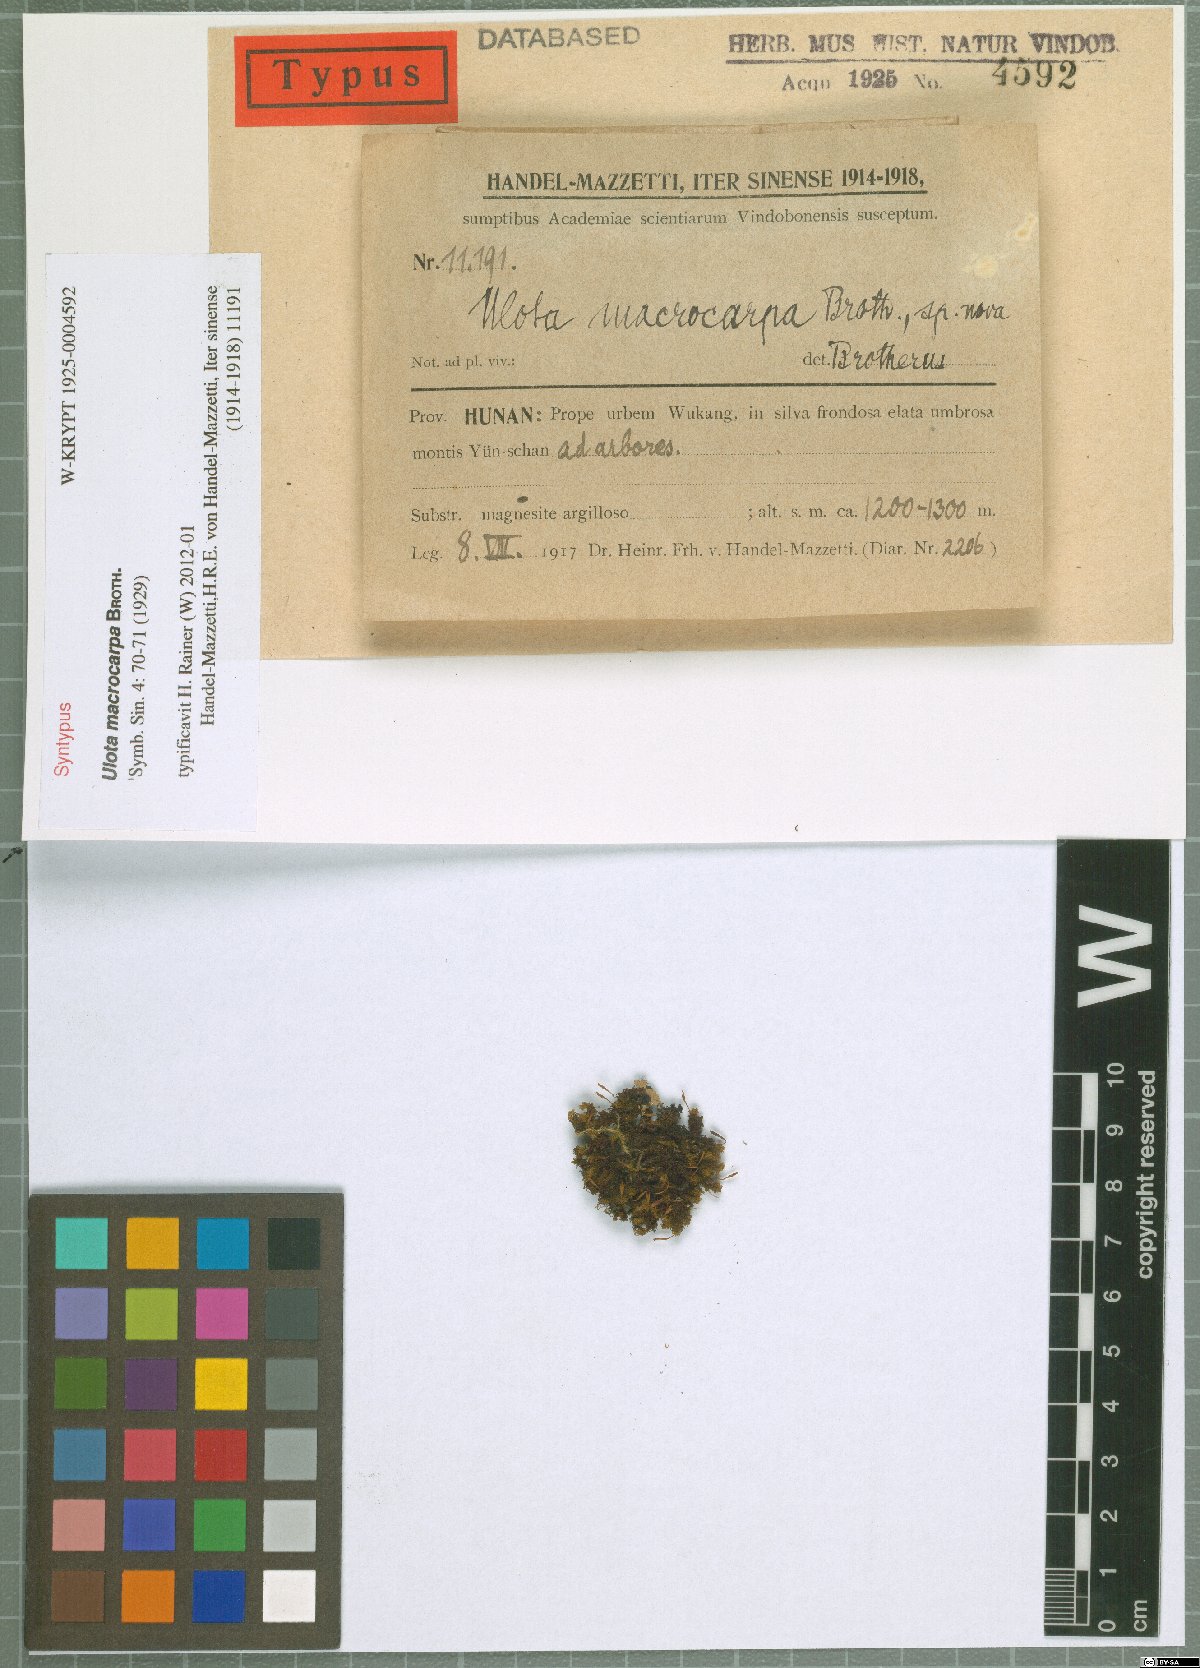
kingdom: Plantae
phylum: Bryophyta
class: Bryopsida
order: Orthotrichales
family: Orthotrichaceae
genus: Ulota
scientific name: Ulota crispa
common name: Crisped pincushion moss
